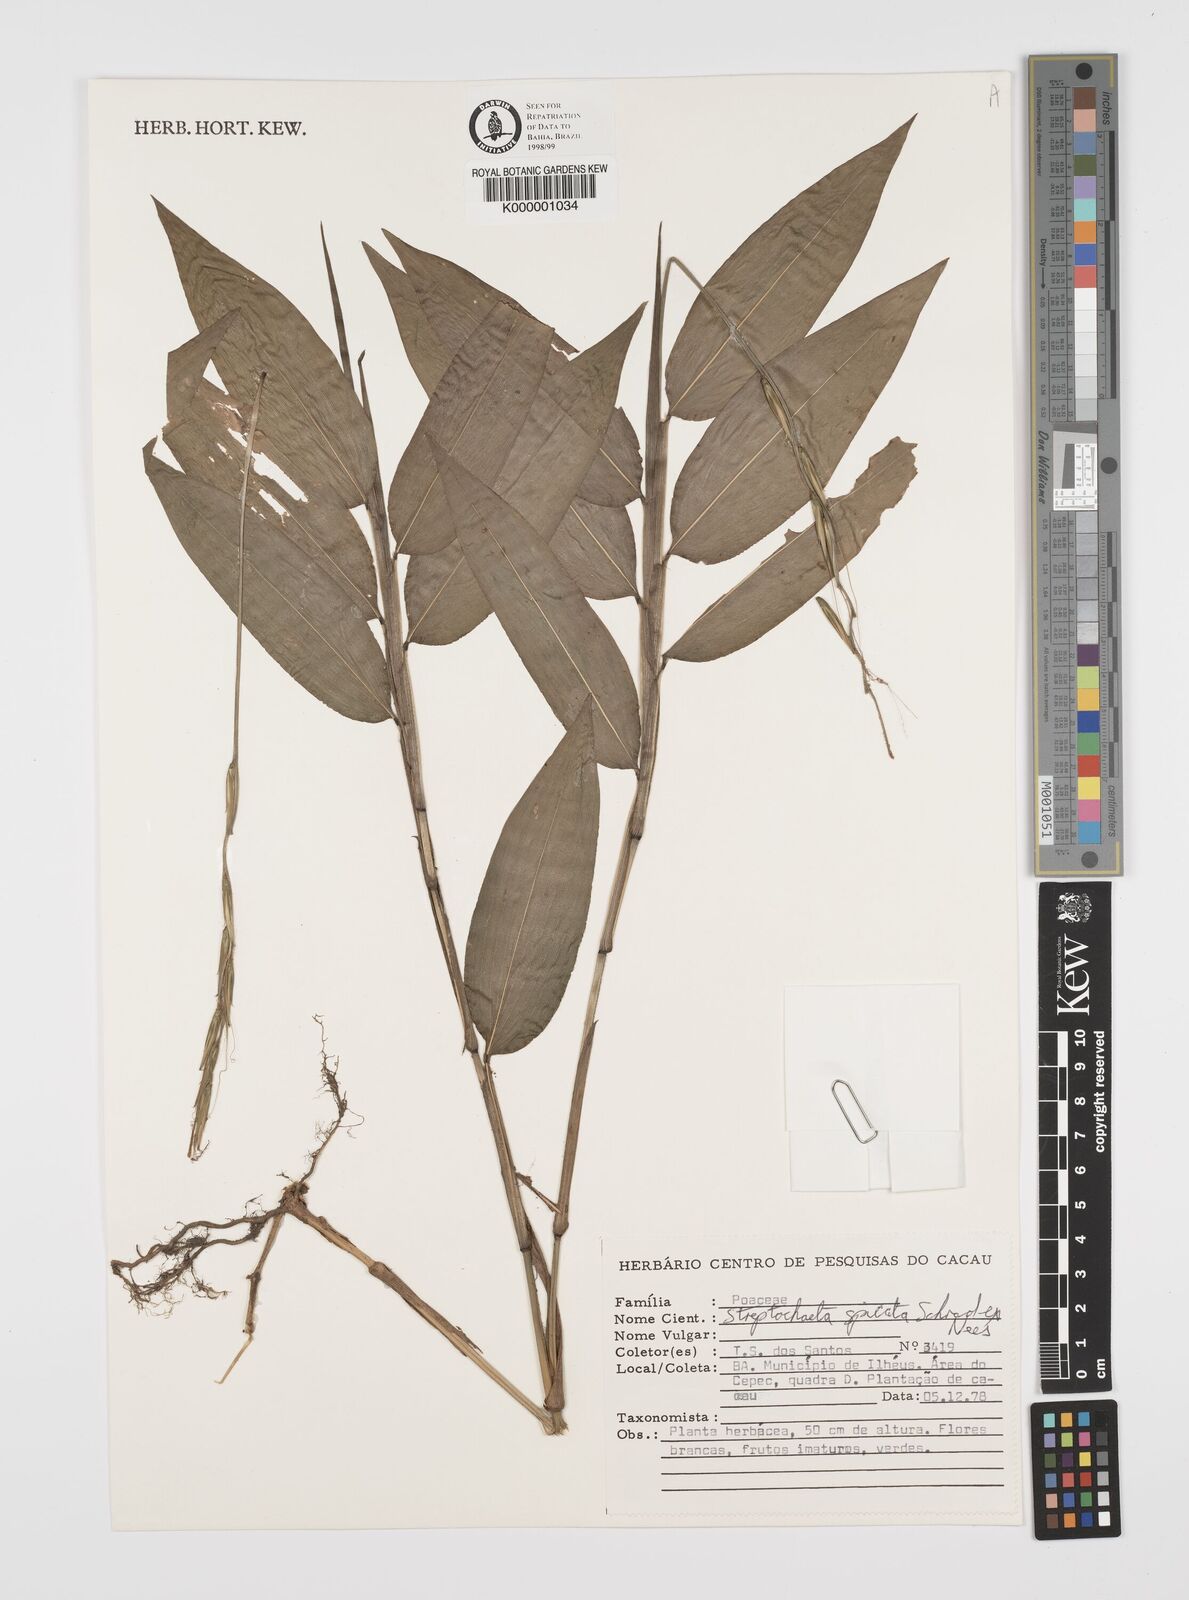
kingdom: Plantae
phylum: Tracheophyta
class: Liliopsida
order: Poales
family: Poaceae
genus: Streptochaeta
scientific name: Streptochaeta spicata
